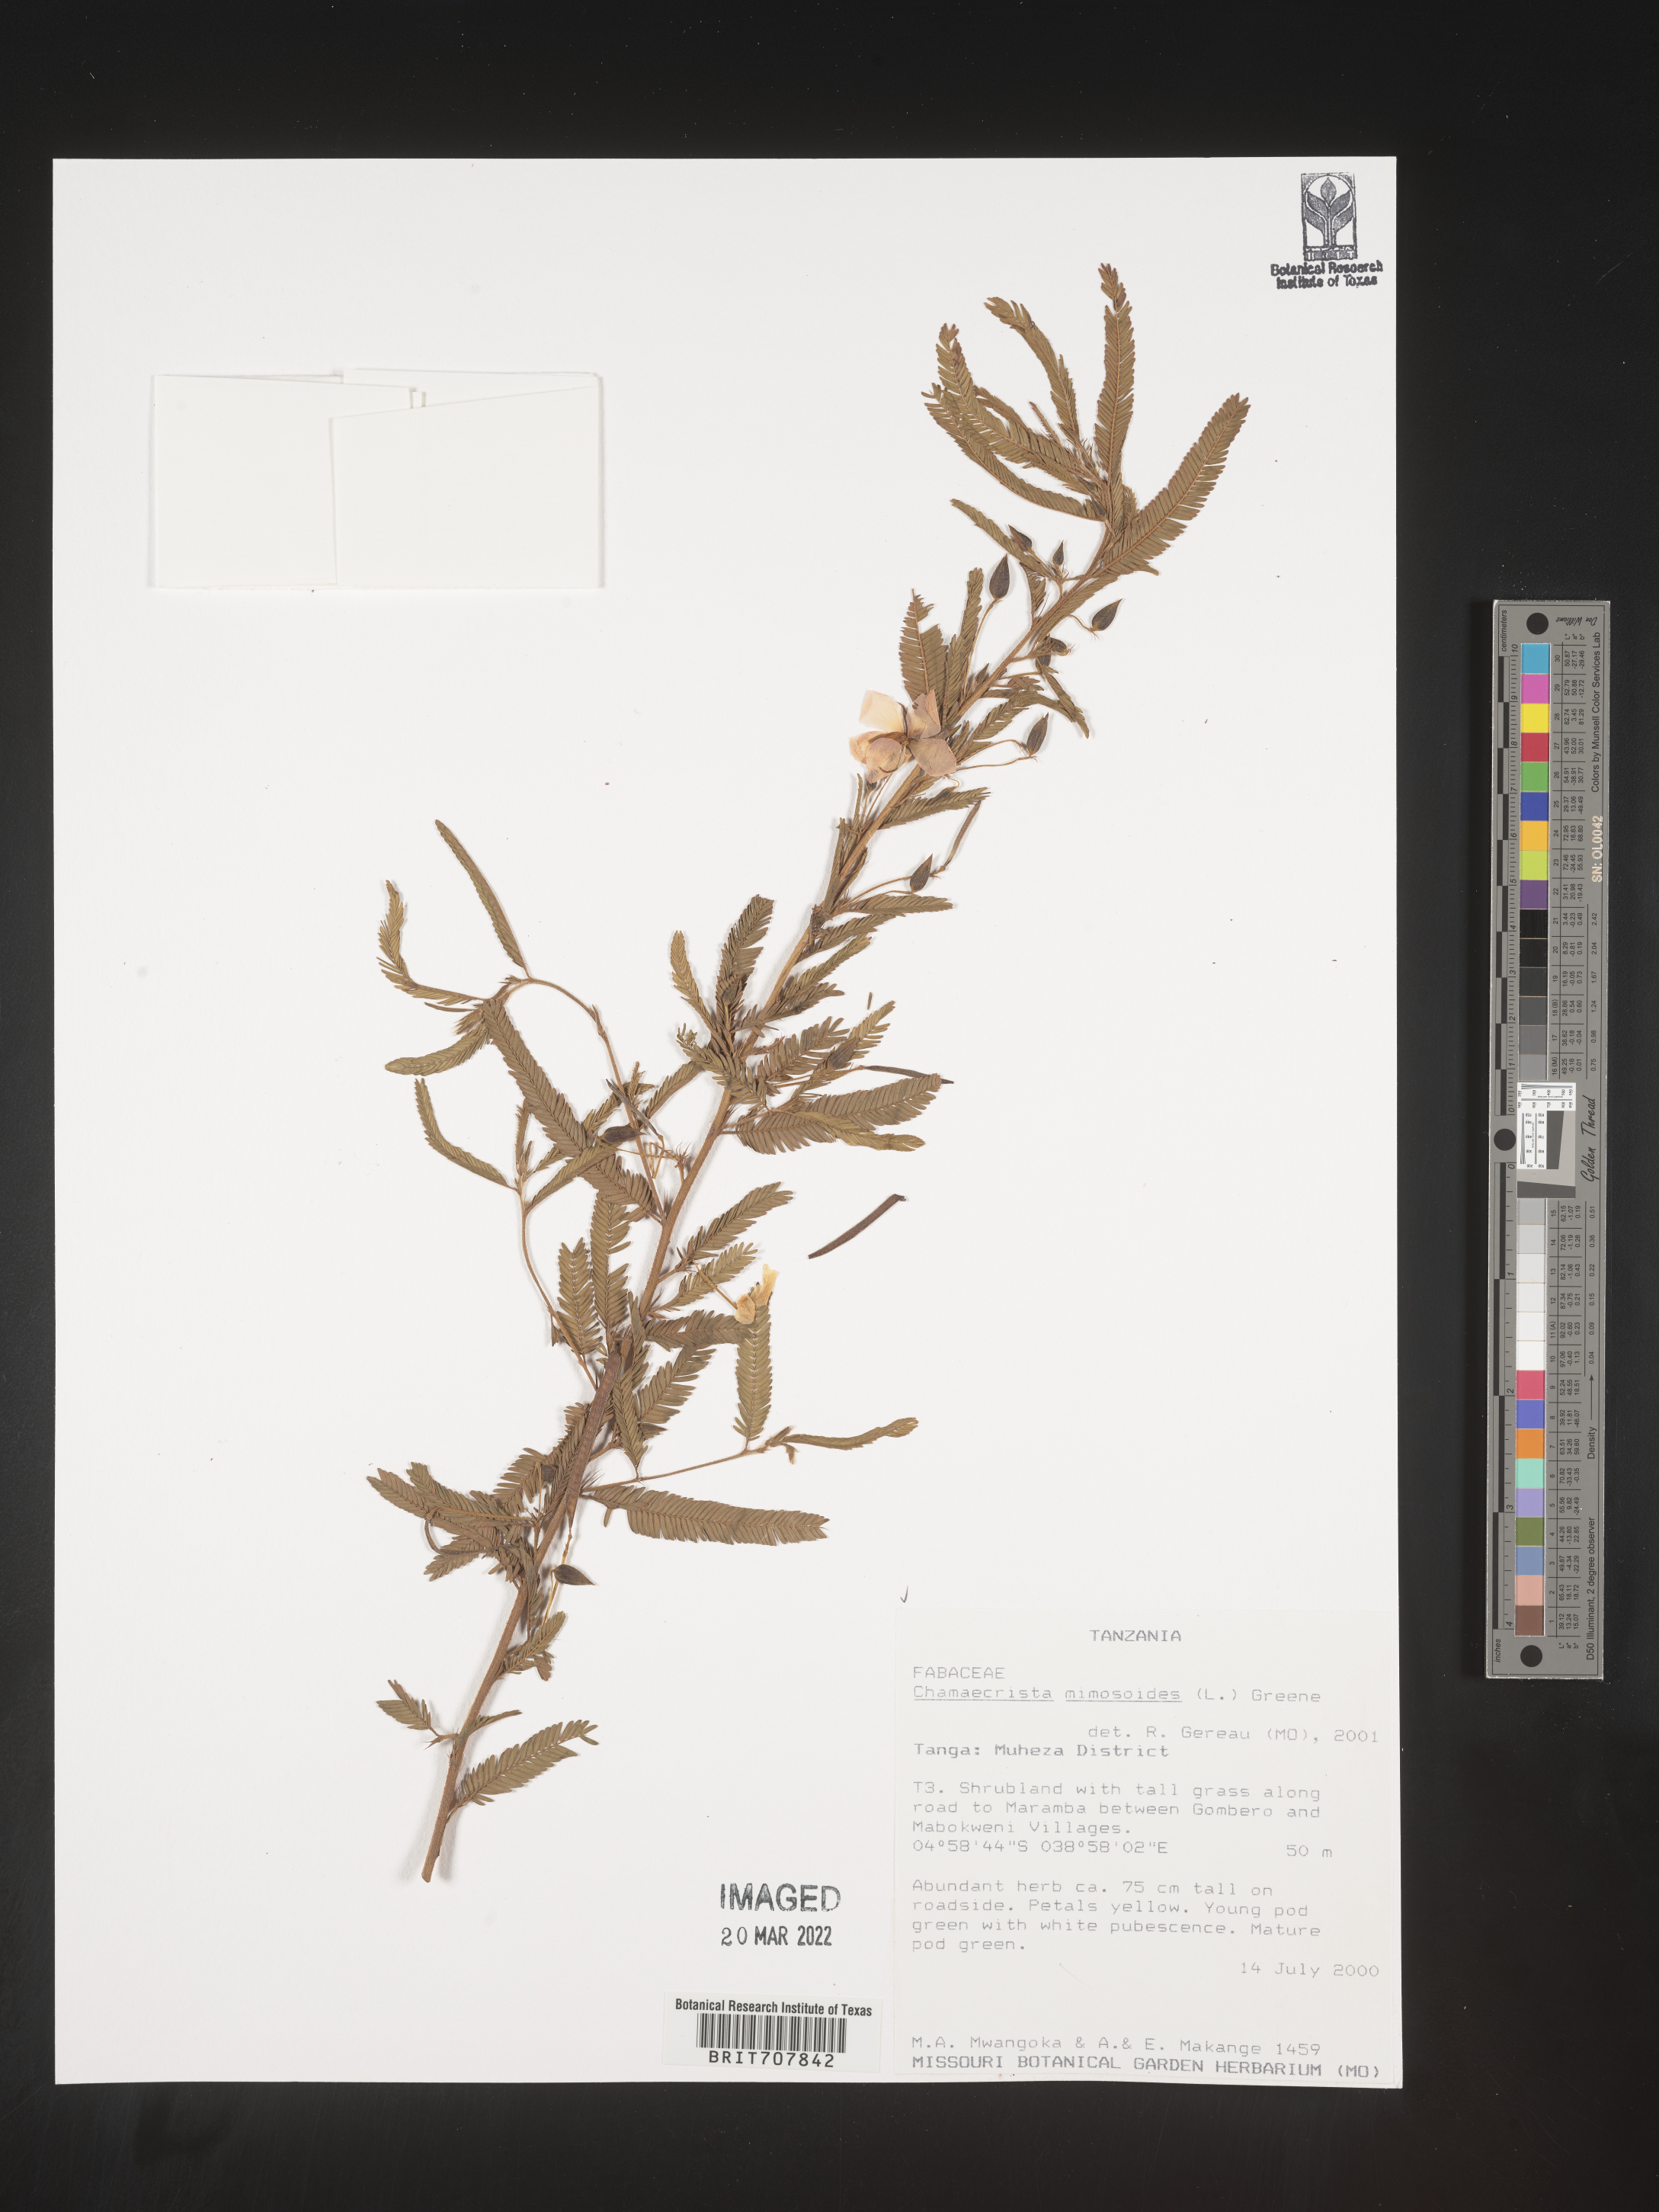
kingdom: Plantae
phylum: Tracheophyta
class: Magnoliopsida
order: Fabales
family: Fabaceae
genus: Chamaecrista
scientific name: Chamaecrista
